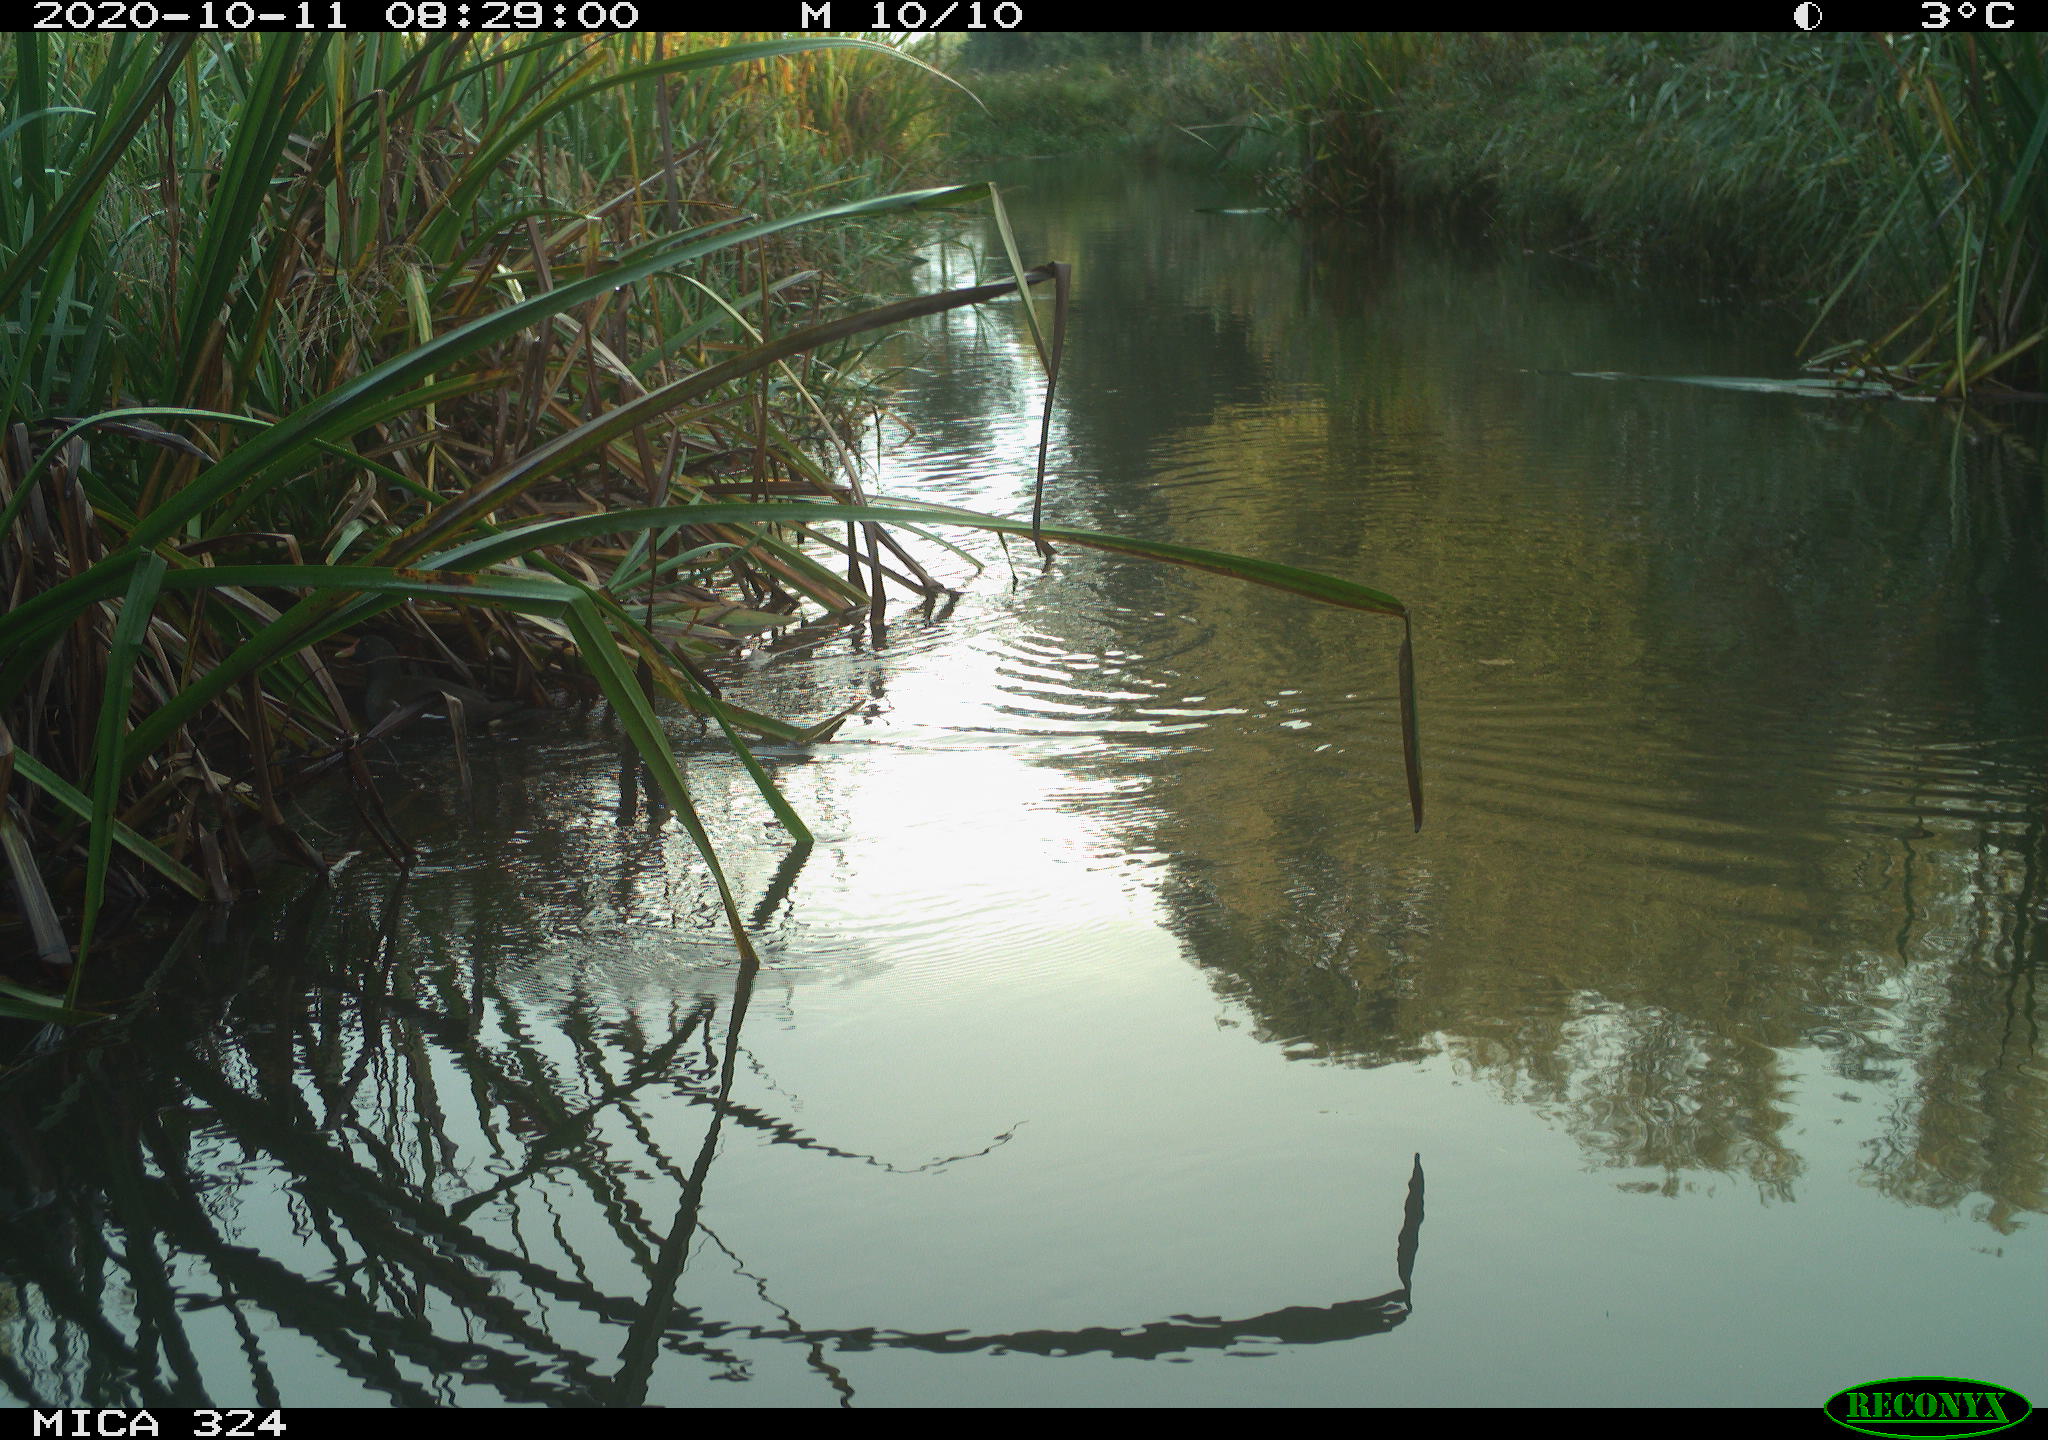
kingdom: Animalia
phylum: Chordata
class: Aves
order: Gruiformes
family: Rallidae
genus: Gallinula
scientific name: Gallinula chloropus
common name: Common moorhen
